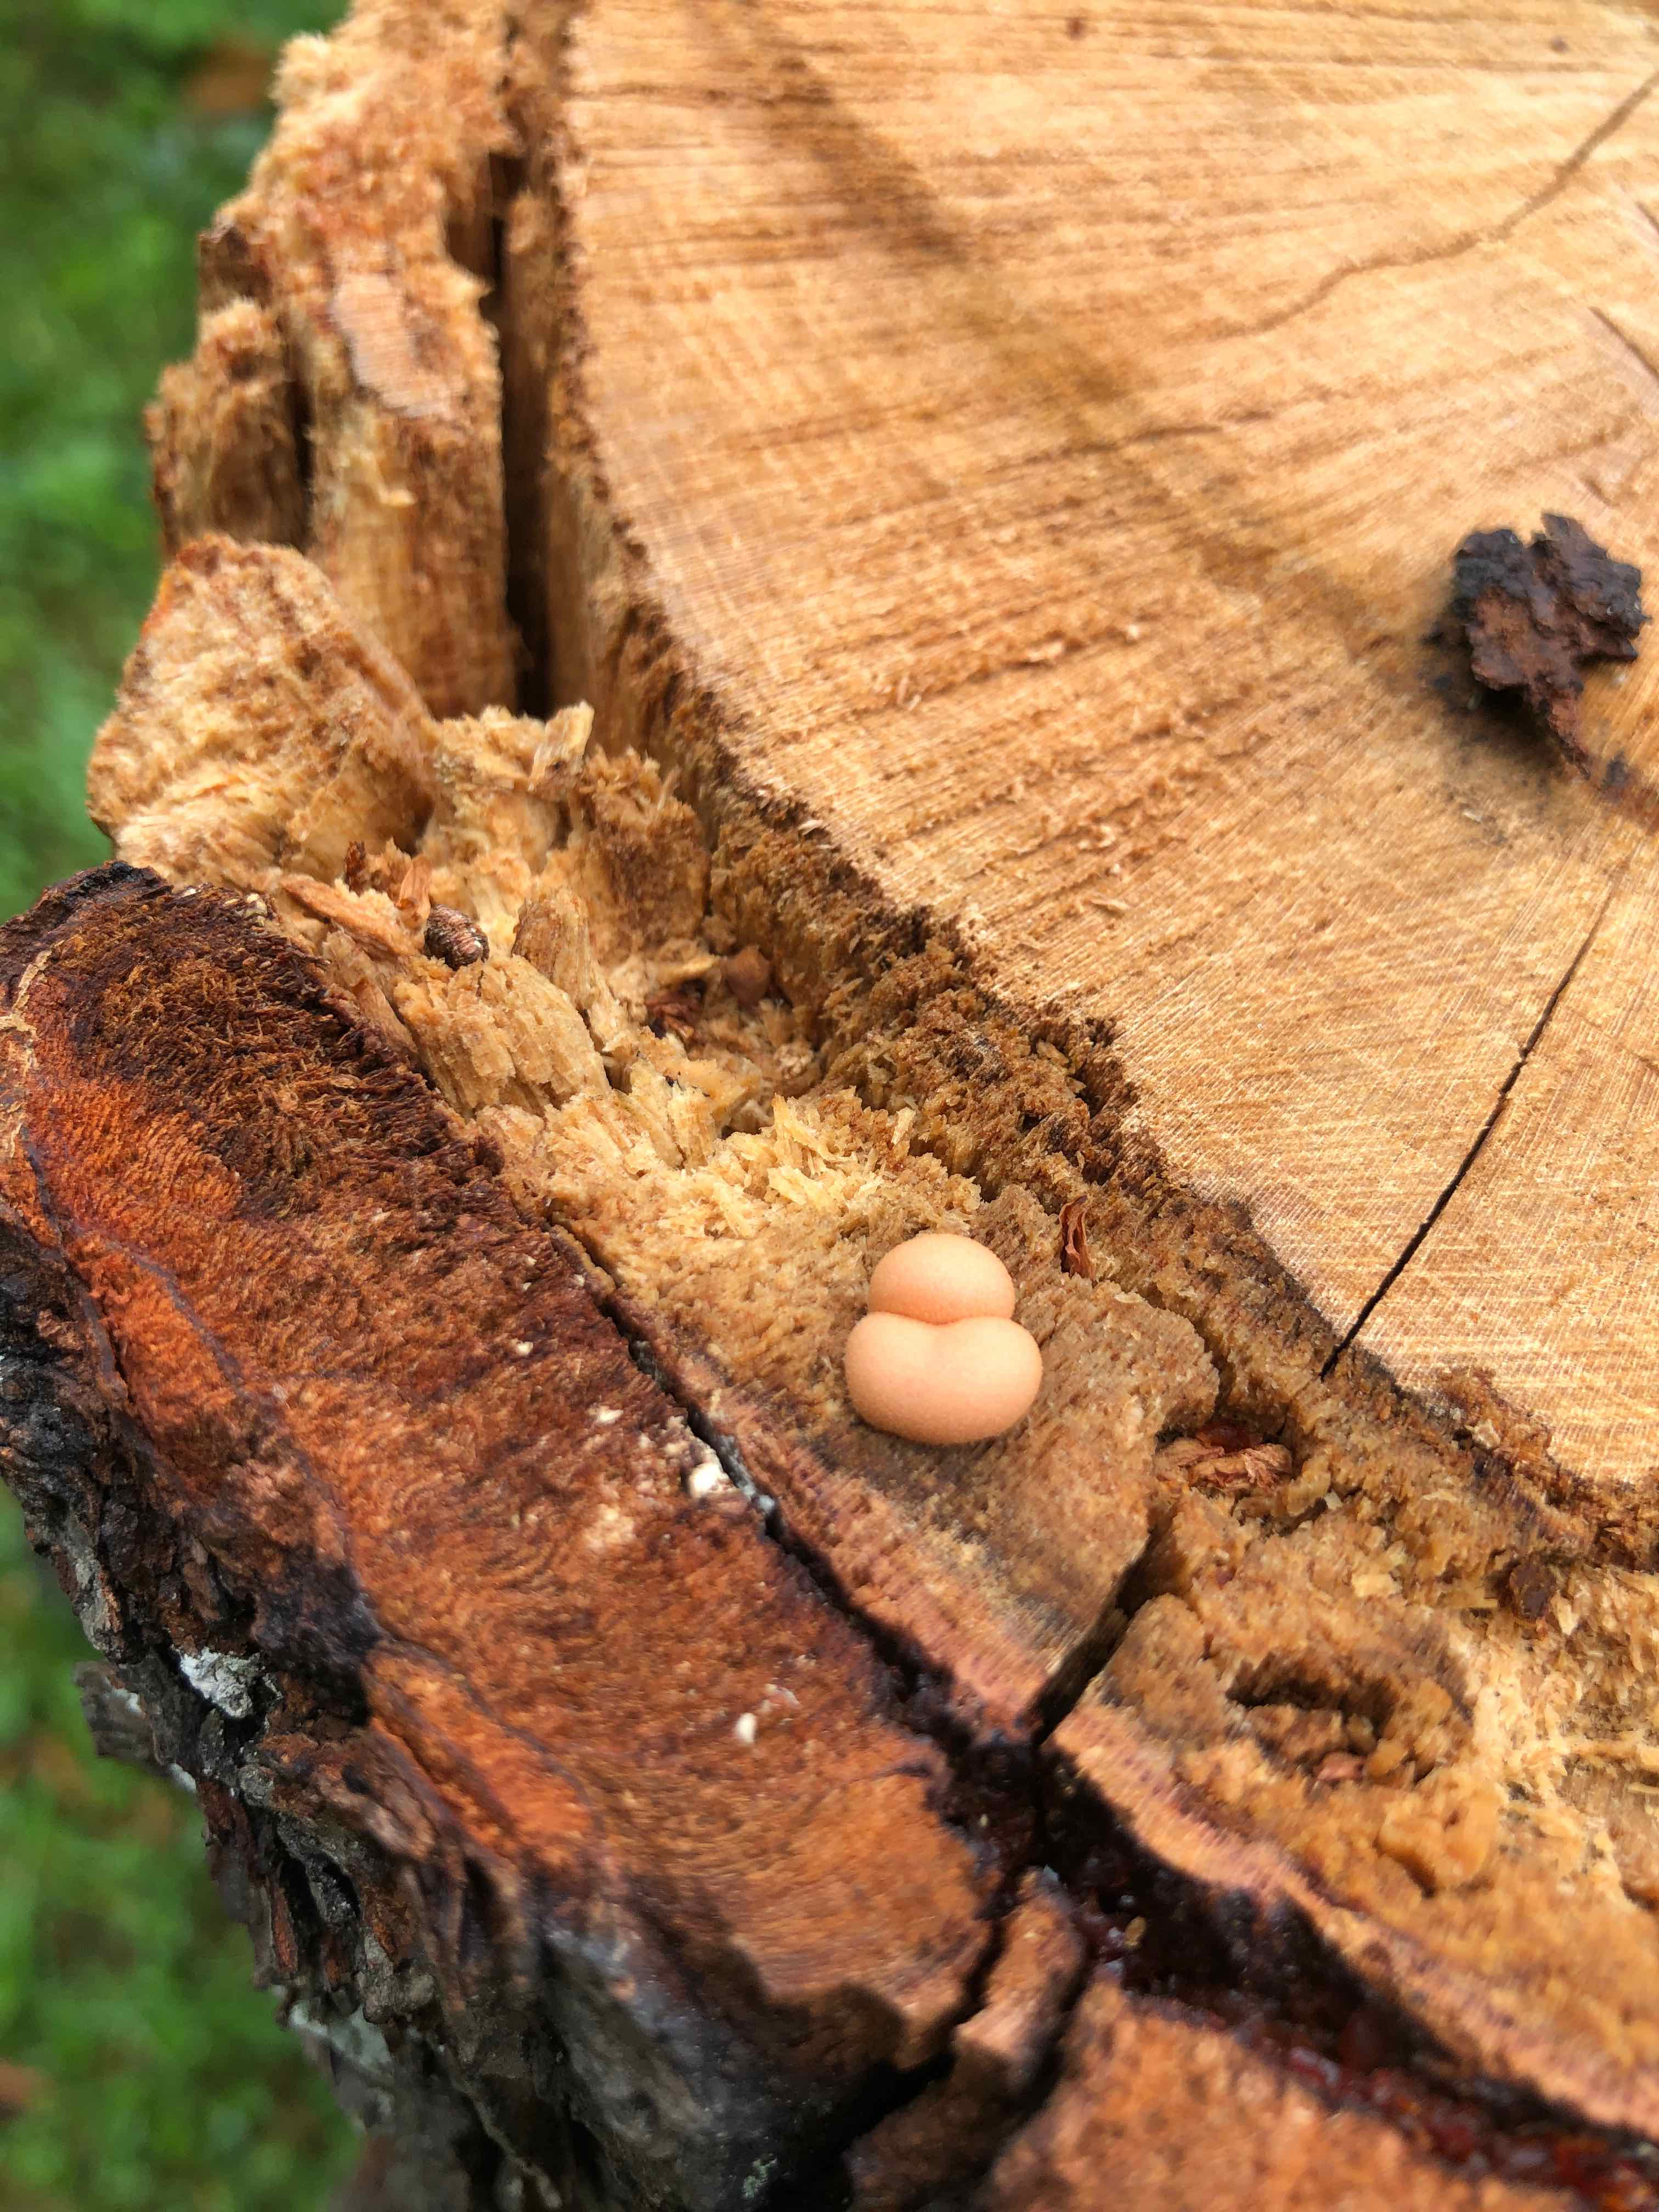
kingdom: Protozoa
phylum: Mycetozoa
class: Myxomycetes
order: Cribrariales
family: Tubiferaceae
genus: Lycogala
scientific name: Lycogala epidendrum
